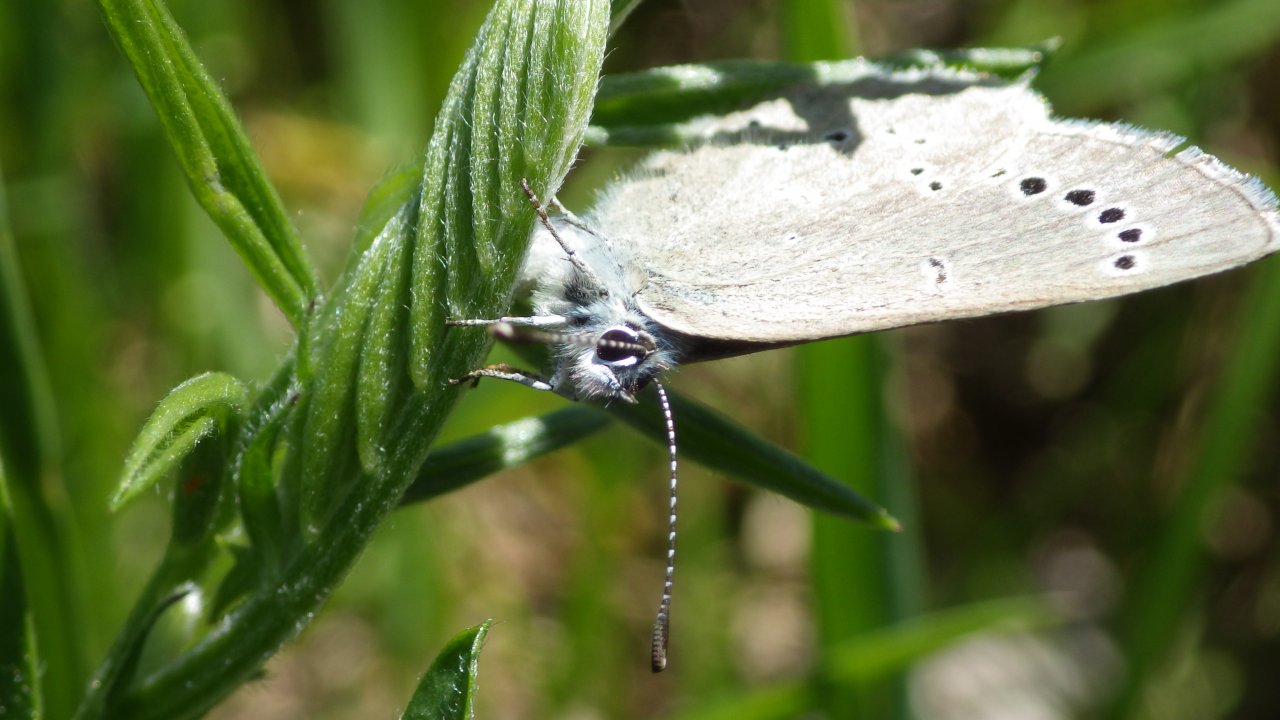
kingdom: Animalia
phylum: Arthropoda
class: Insecta
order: Lepidoptera
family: Lycaenidae
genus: Glaucopsyche
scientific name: Glaucopsyche lygdamus
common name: Silvery Blue
